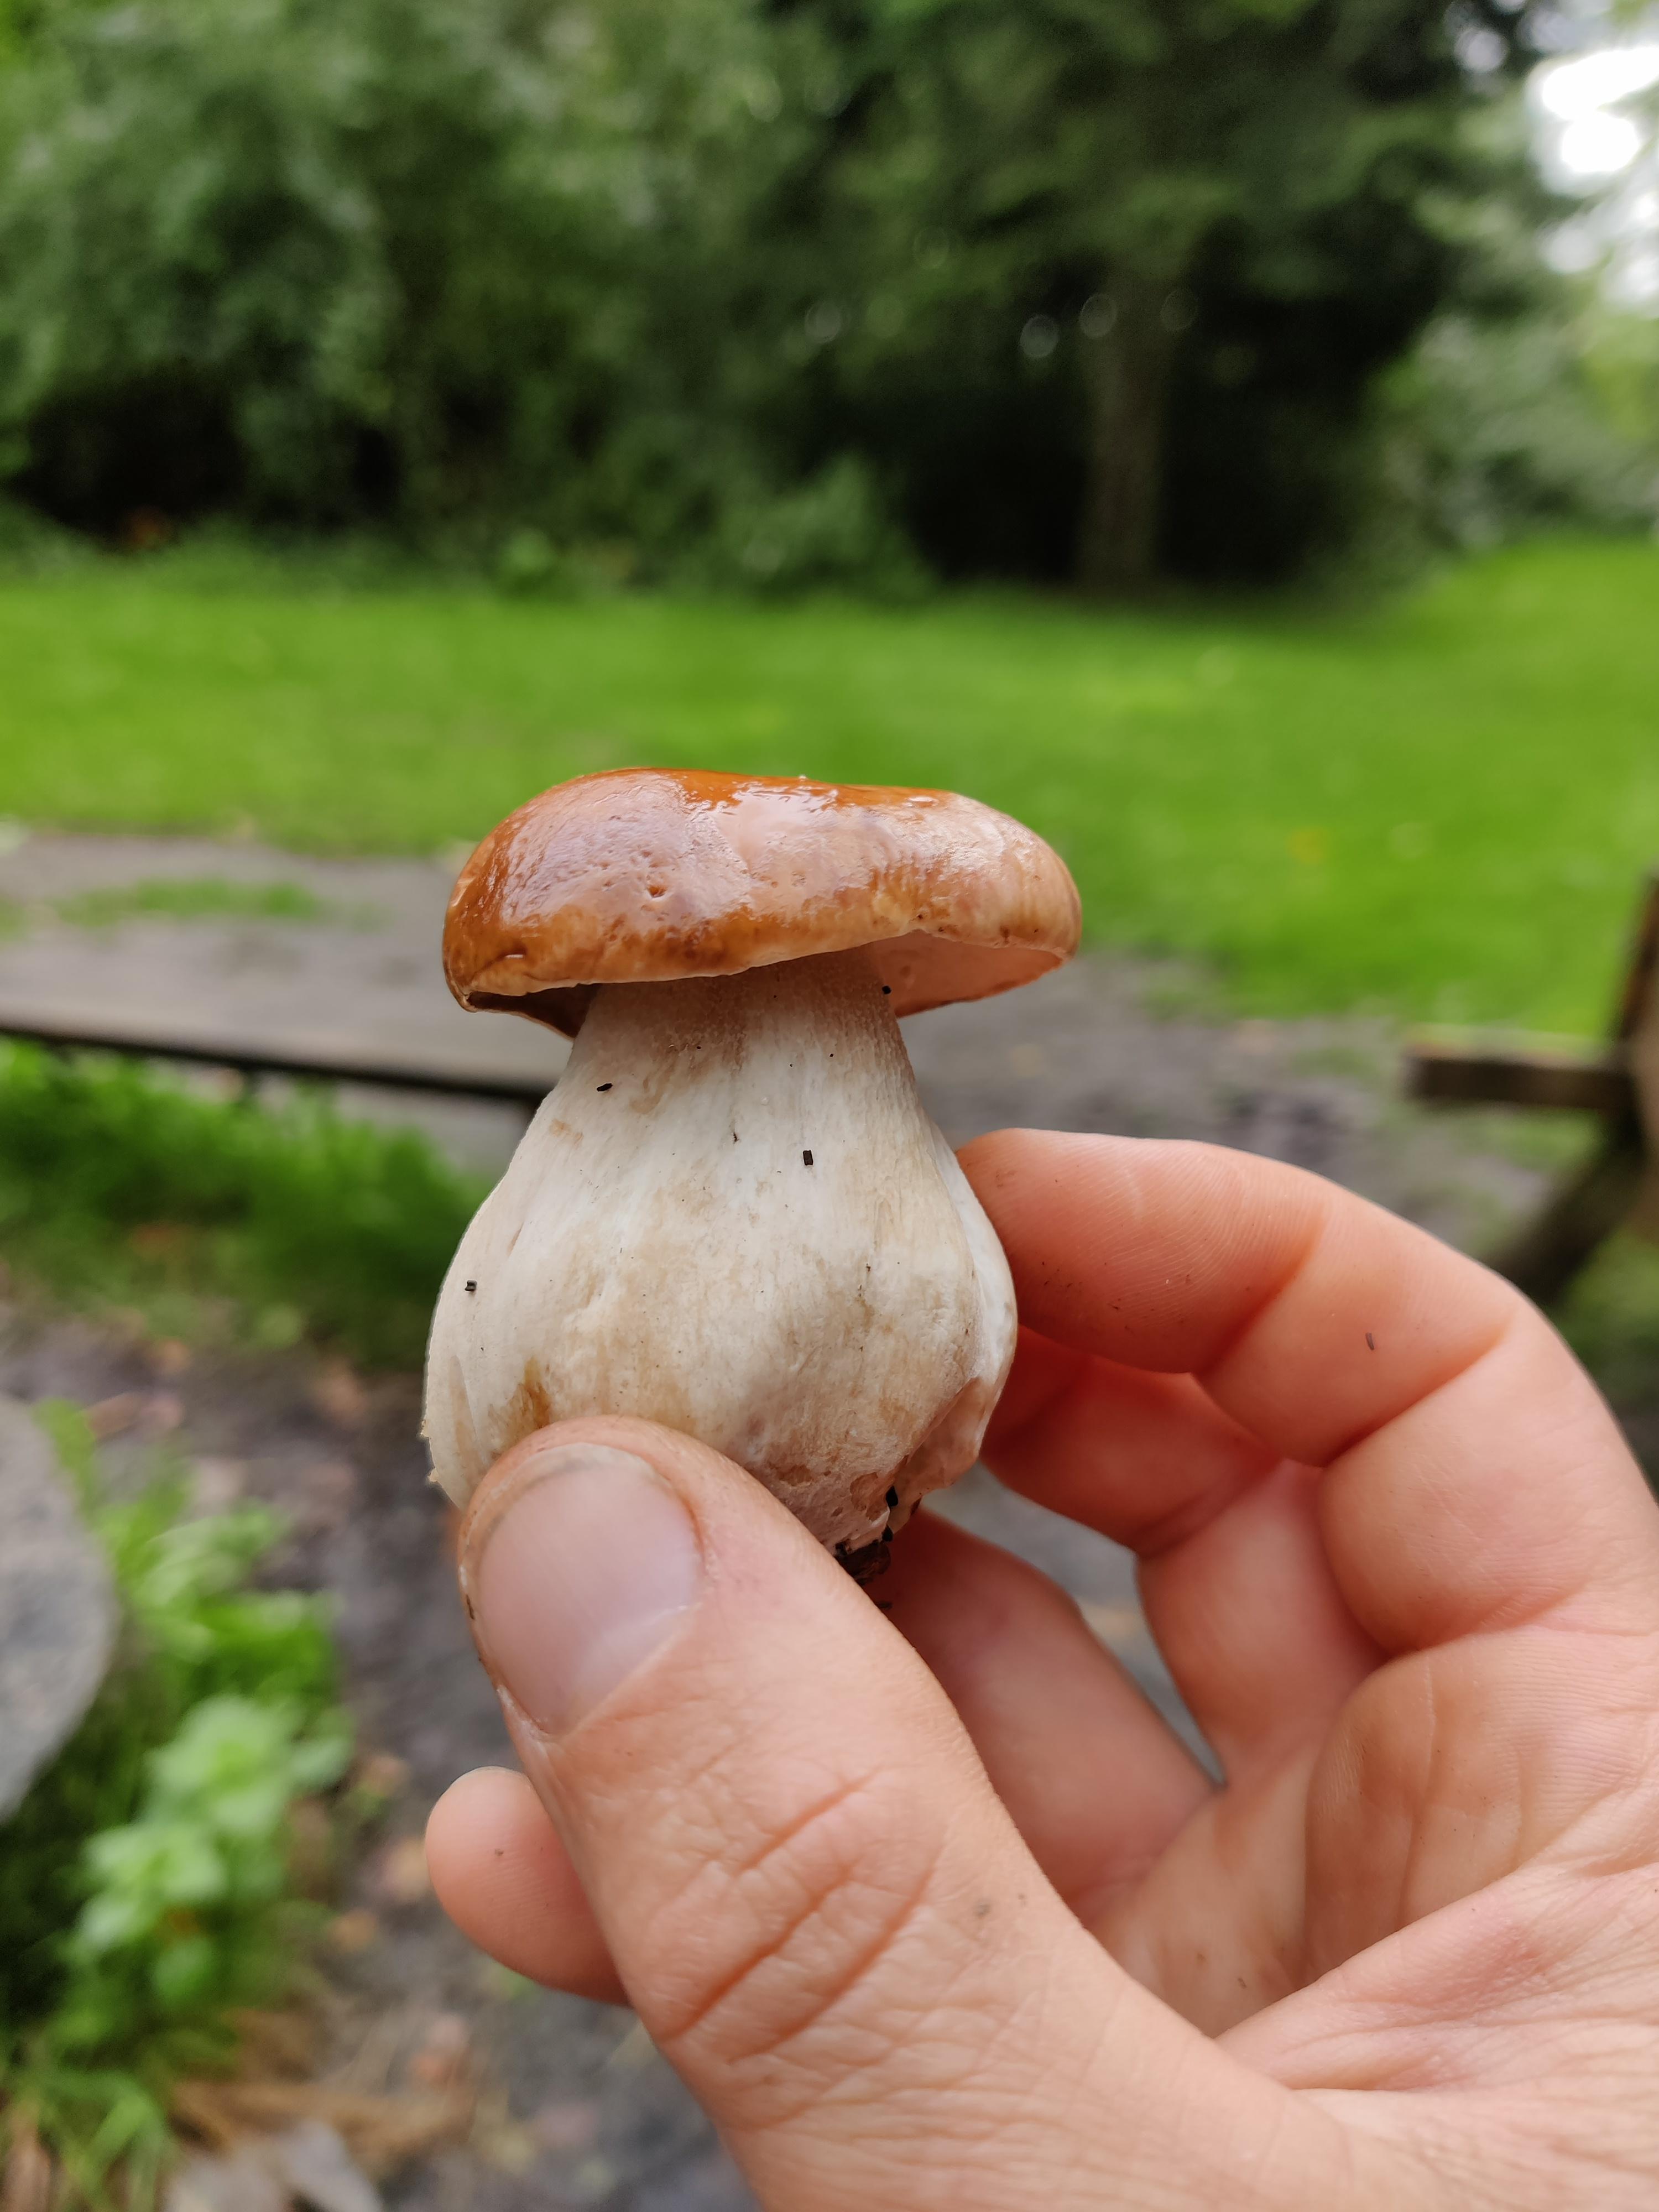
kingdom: Fungi
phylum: Basidiomycota
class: Agaricomycetes
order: Boletales
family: Boletaceae
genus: Boletus
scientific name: Boletus edulis
